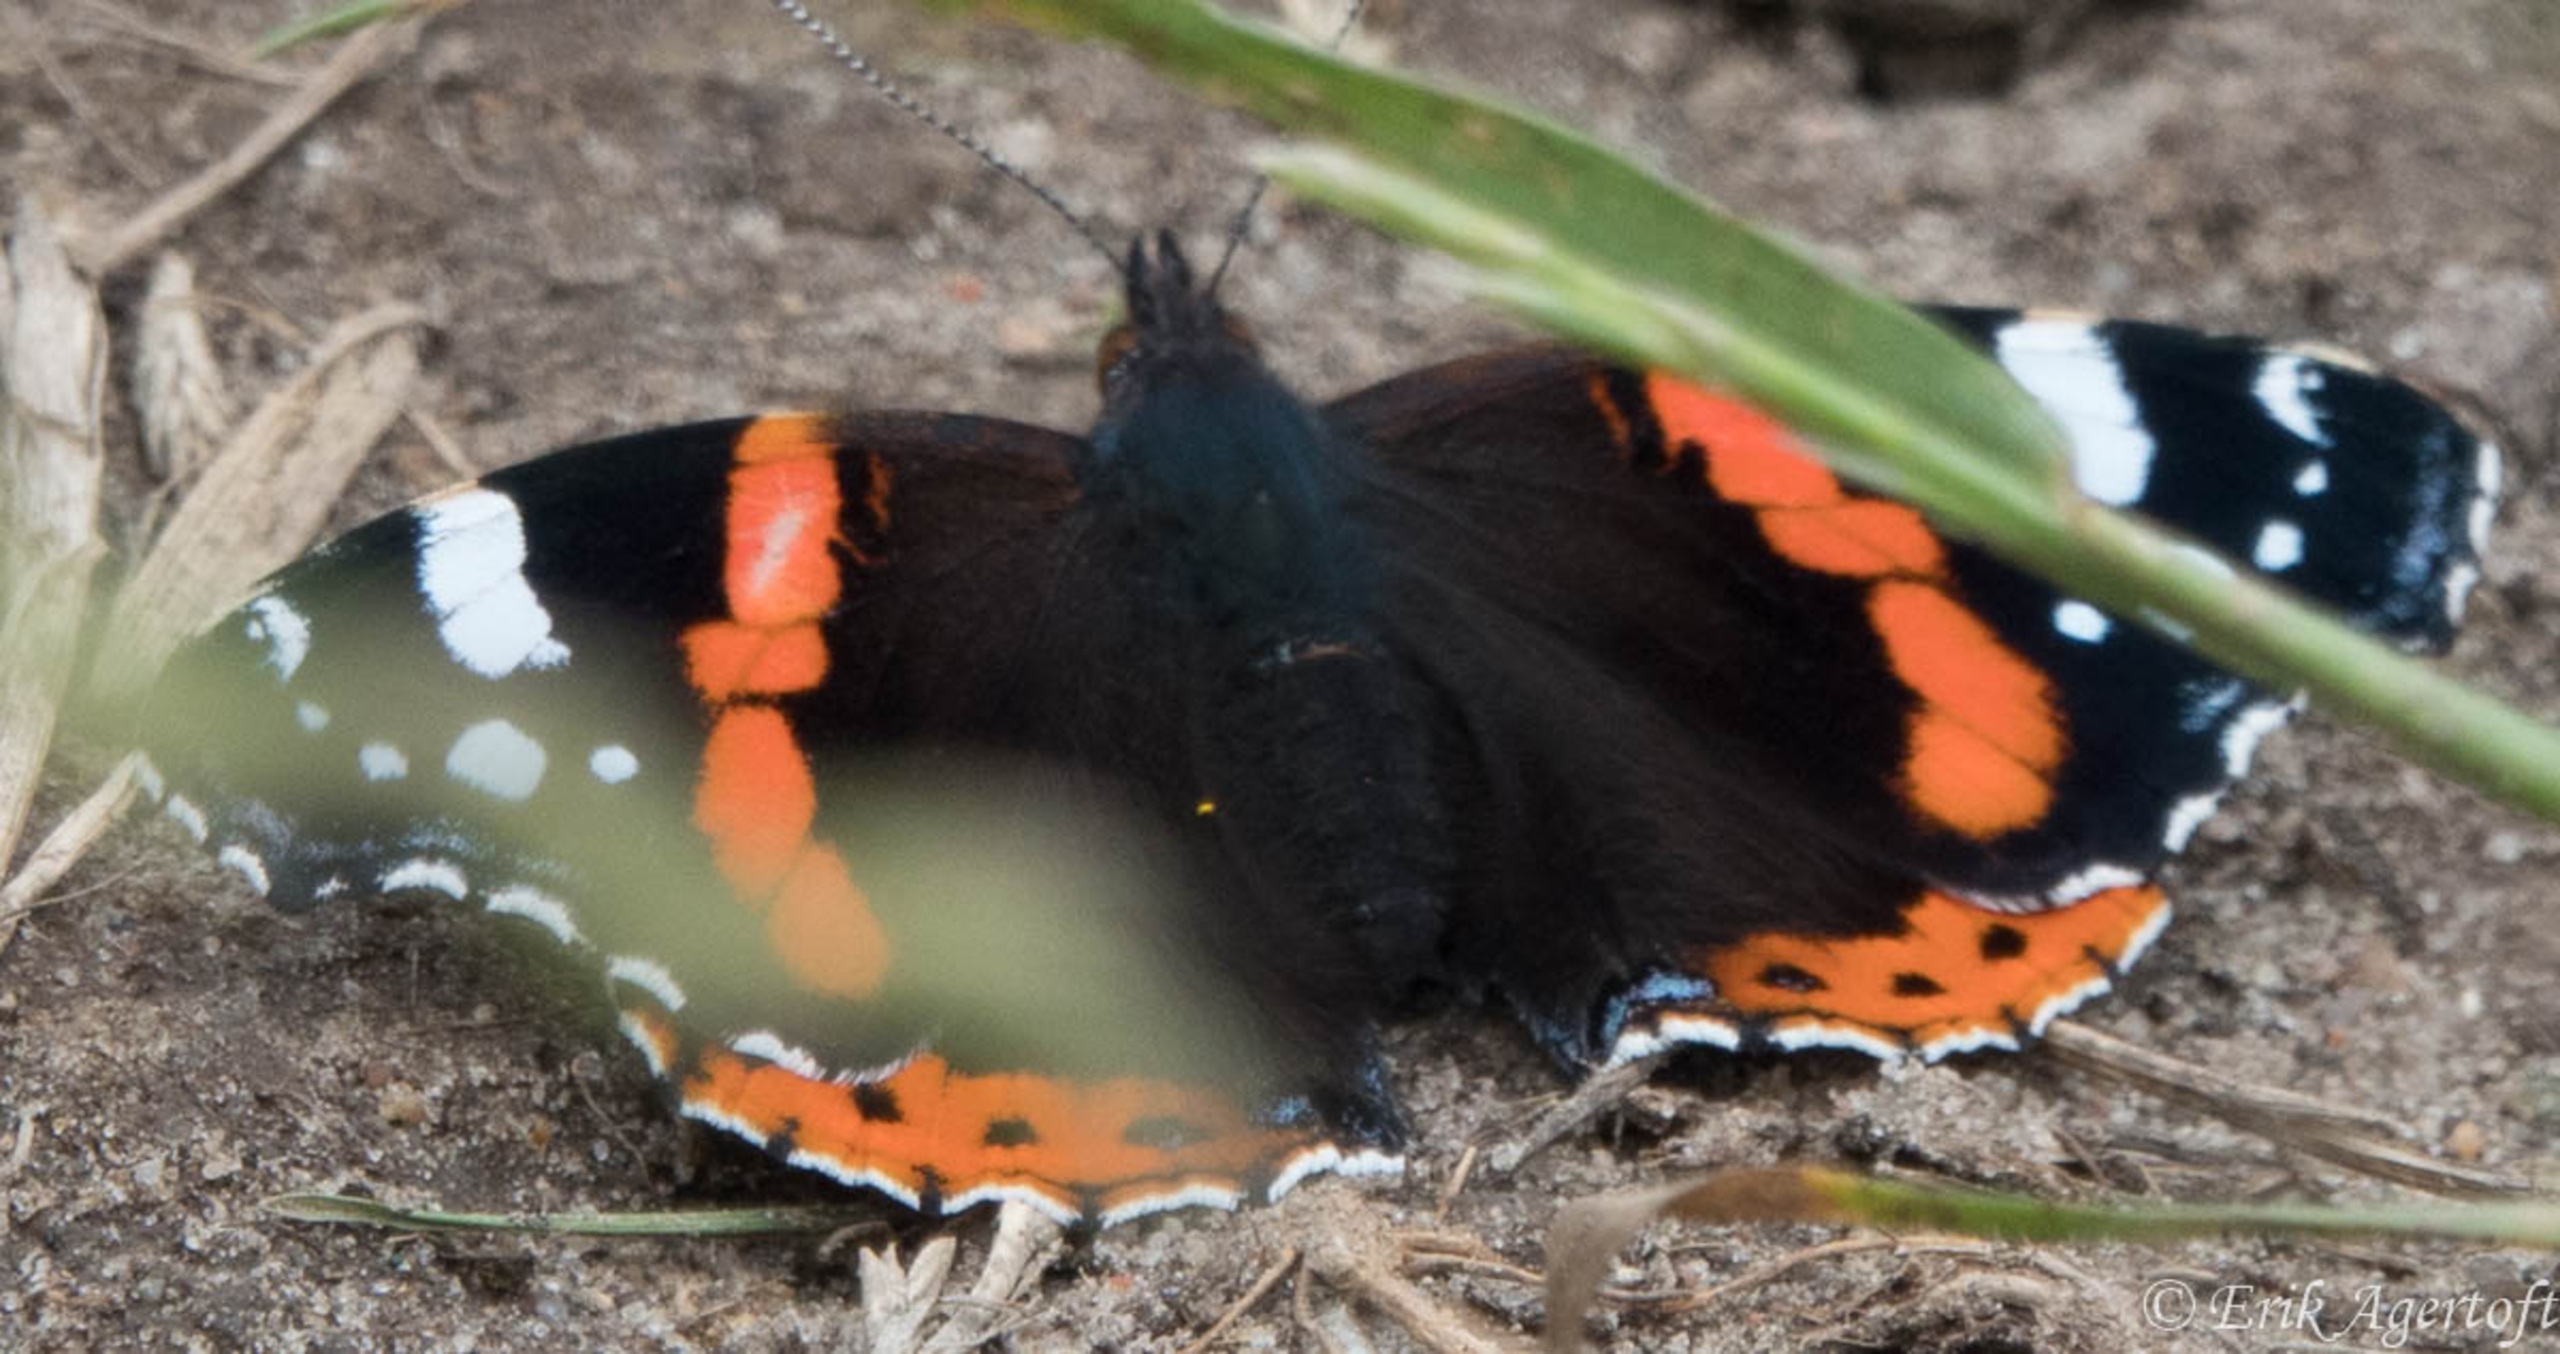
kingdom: Animalia
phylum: Arthropoda
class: Insecta
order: Lepidoptera
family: Nymphalidae
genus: Vanessa
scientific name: Vanessa atalanta
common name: Admiral
